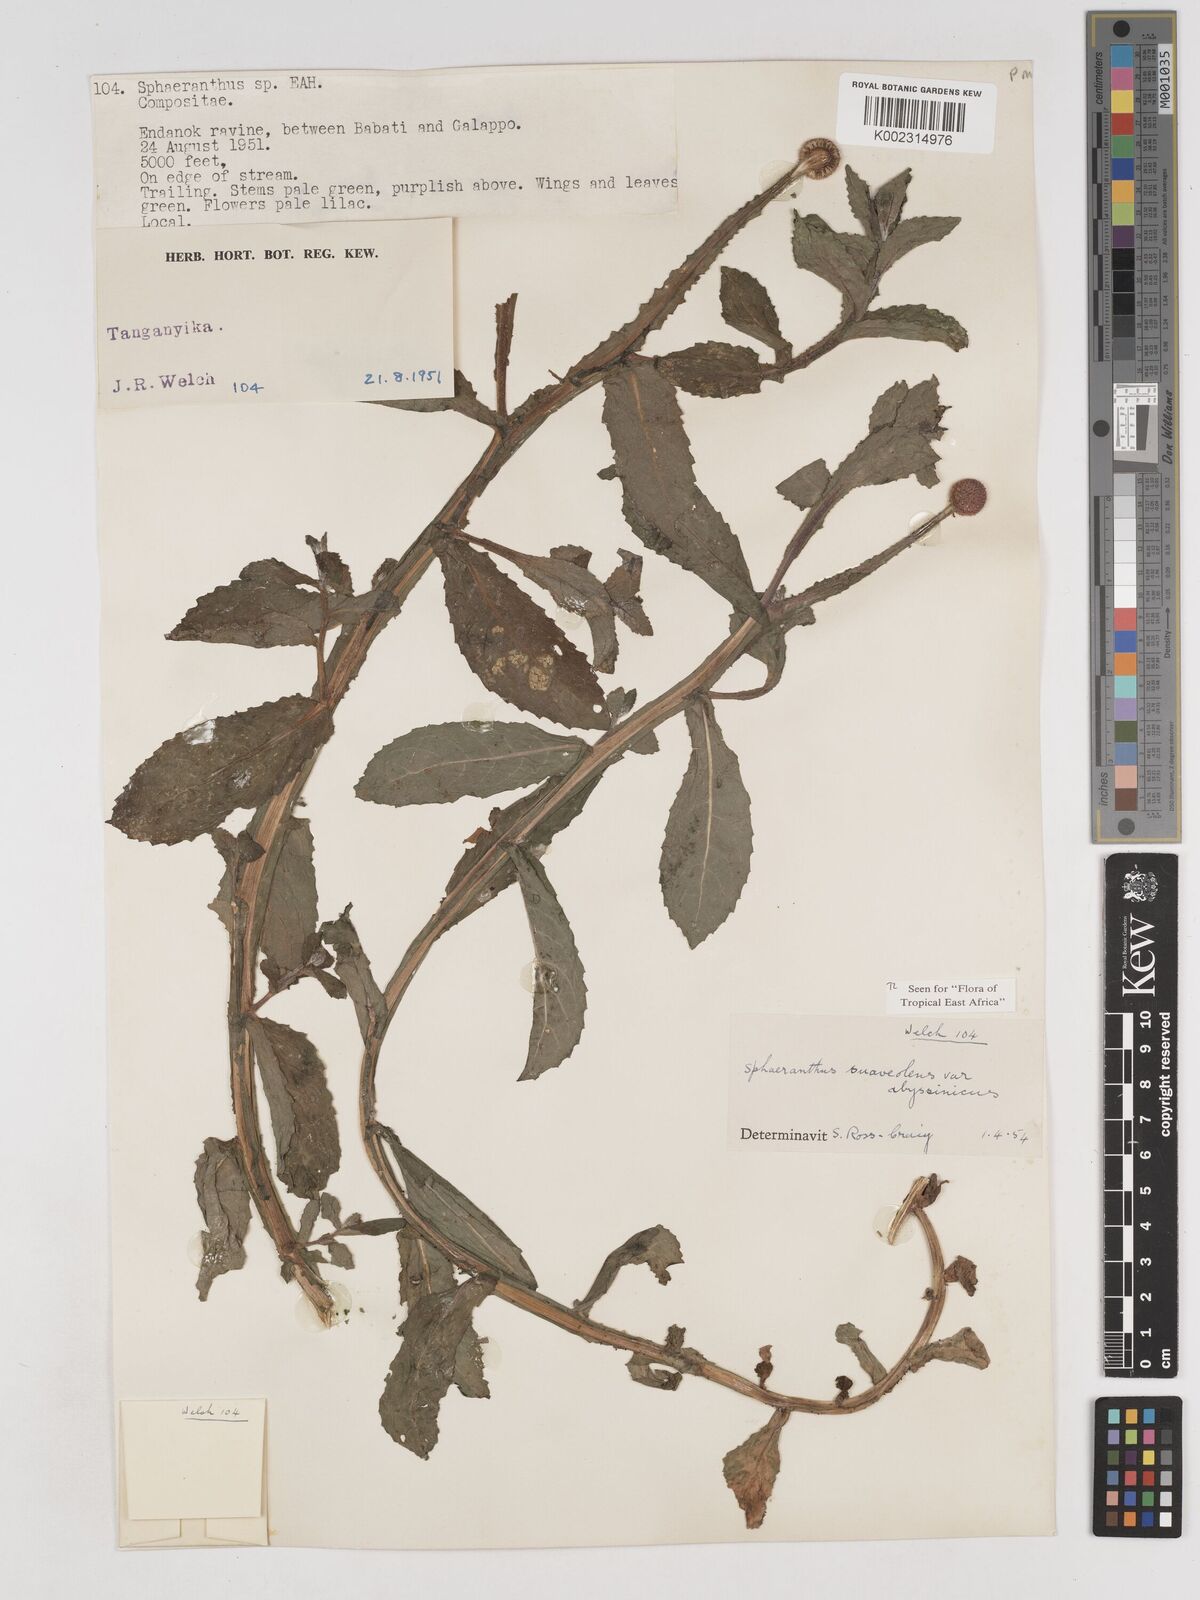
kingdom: Plantae
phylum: Tracheophyta
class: Magnoliopsida
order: Asterales
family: Asteraceae
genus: Sphaeranthus
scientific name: Sphaeranthus suaveolens
